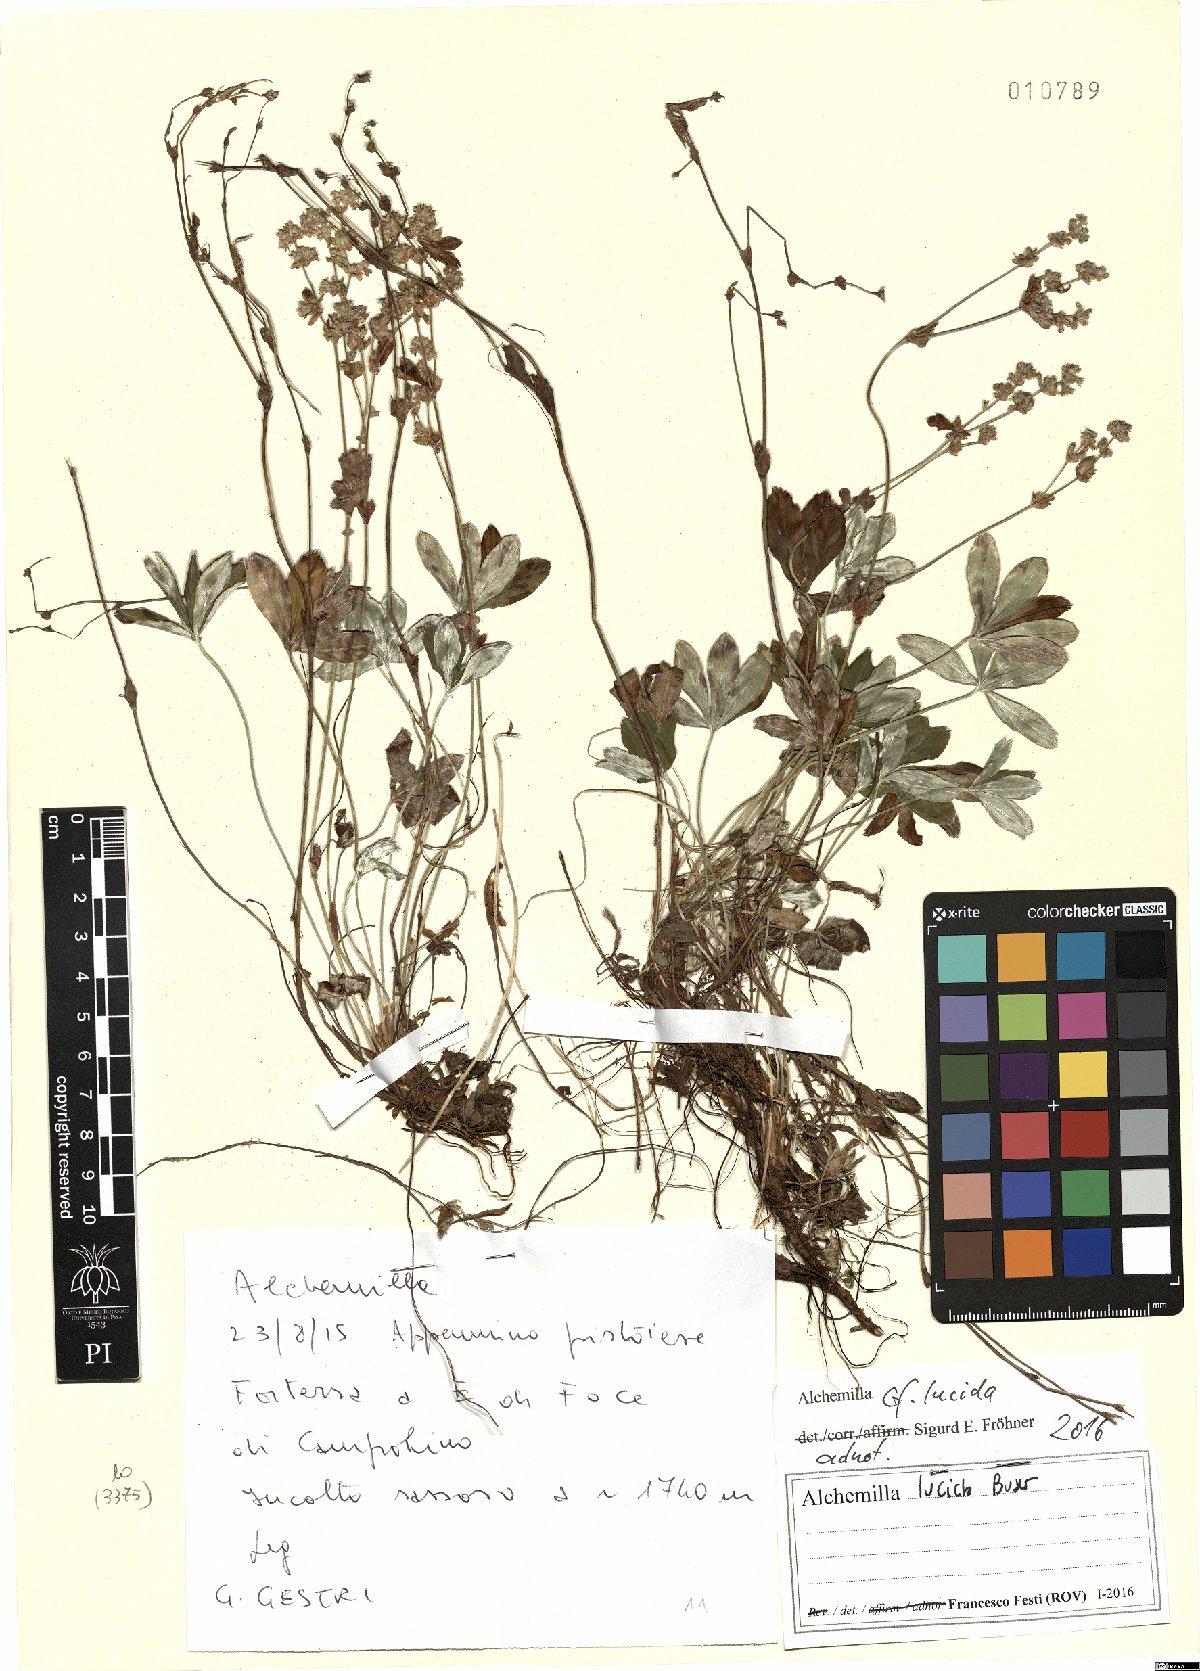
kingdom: Plantae
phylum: Tracheophyta
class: Magnoliopsida
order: Rosales
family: Rosaceae
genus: Alchemilla
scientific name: Alchemilla lucida
